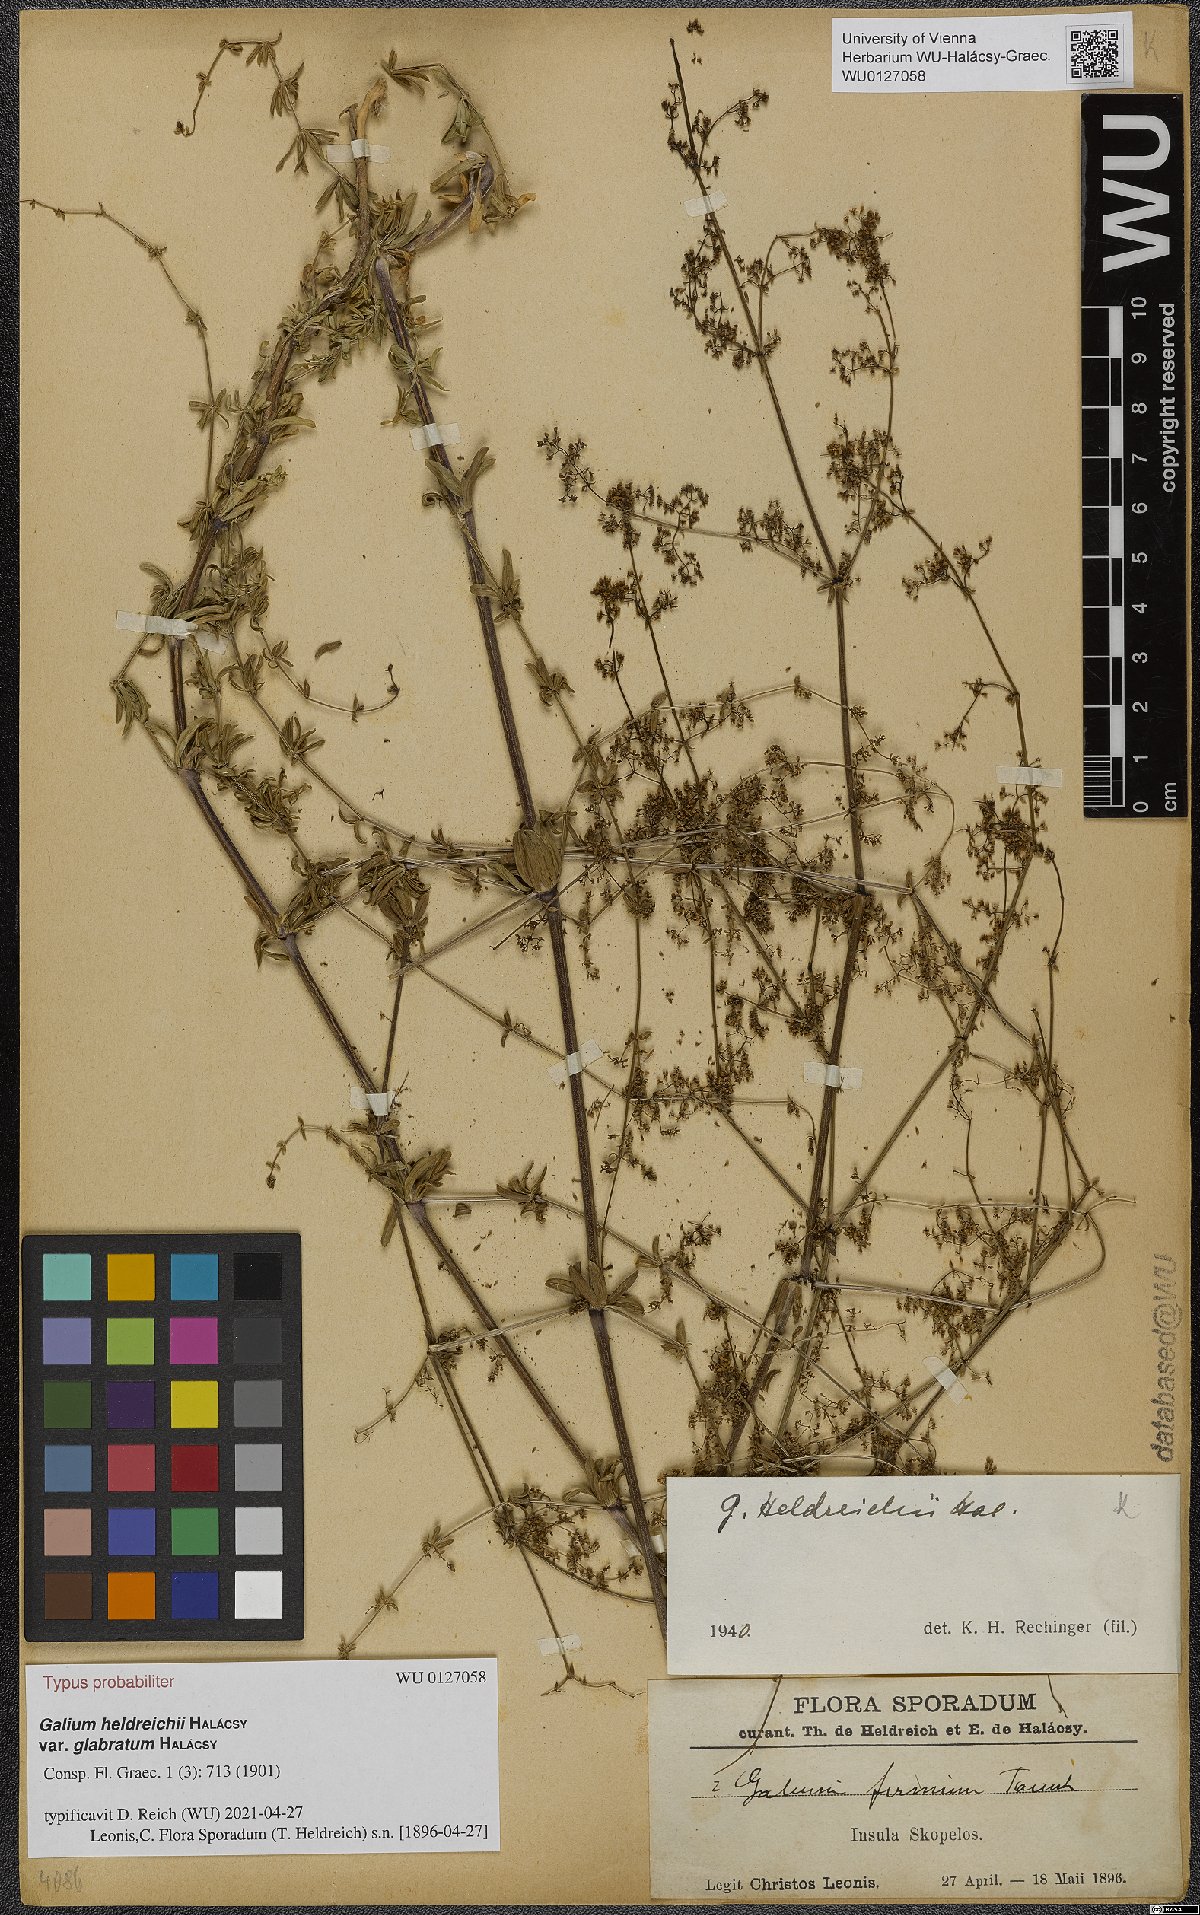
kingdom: Plantae
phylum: Tracheophyta
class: Magnoliopsida
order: Gentianales
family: Rubiaceae
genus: Galium
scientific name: Galium heldreichii
